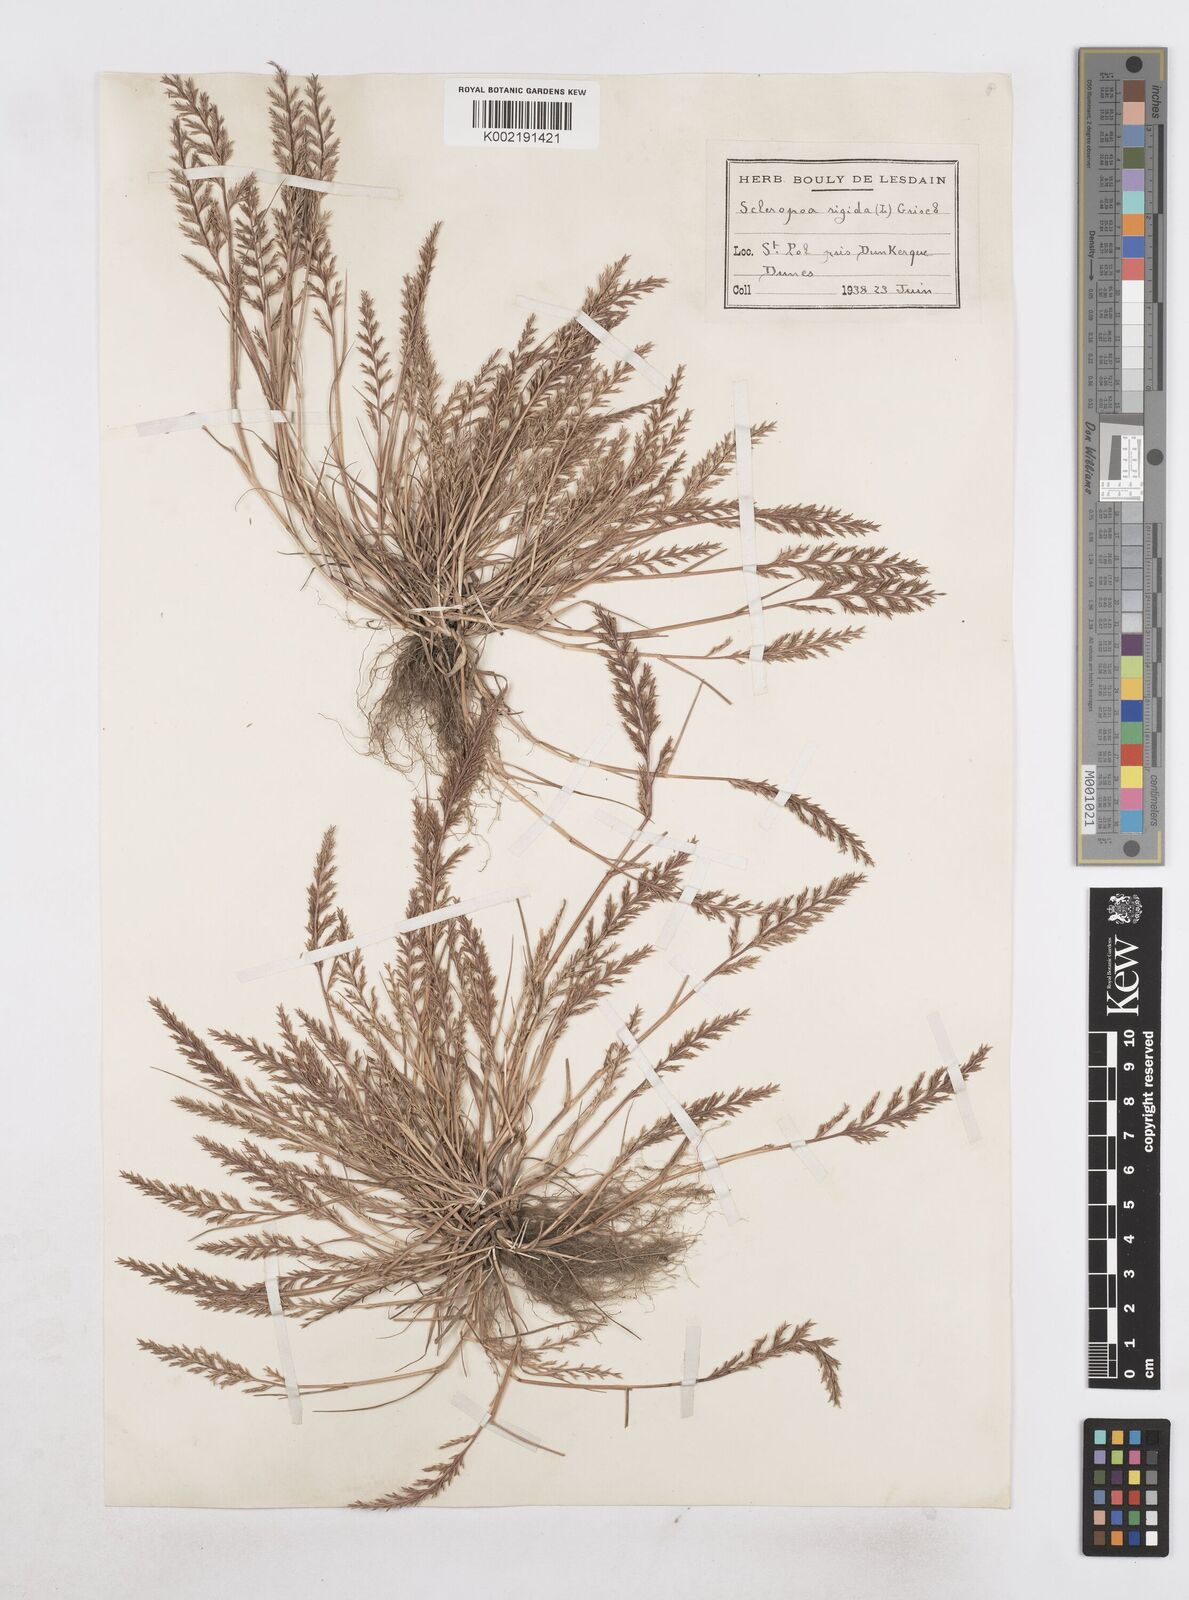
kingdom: Plantae
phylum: Tracheophyta
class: Liliopsida
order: Poales
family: Poaceae
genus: Catapodium
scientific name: Catapodium rigidum
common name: Fern-grass
